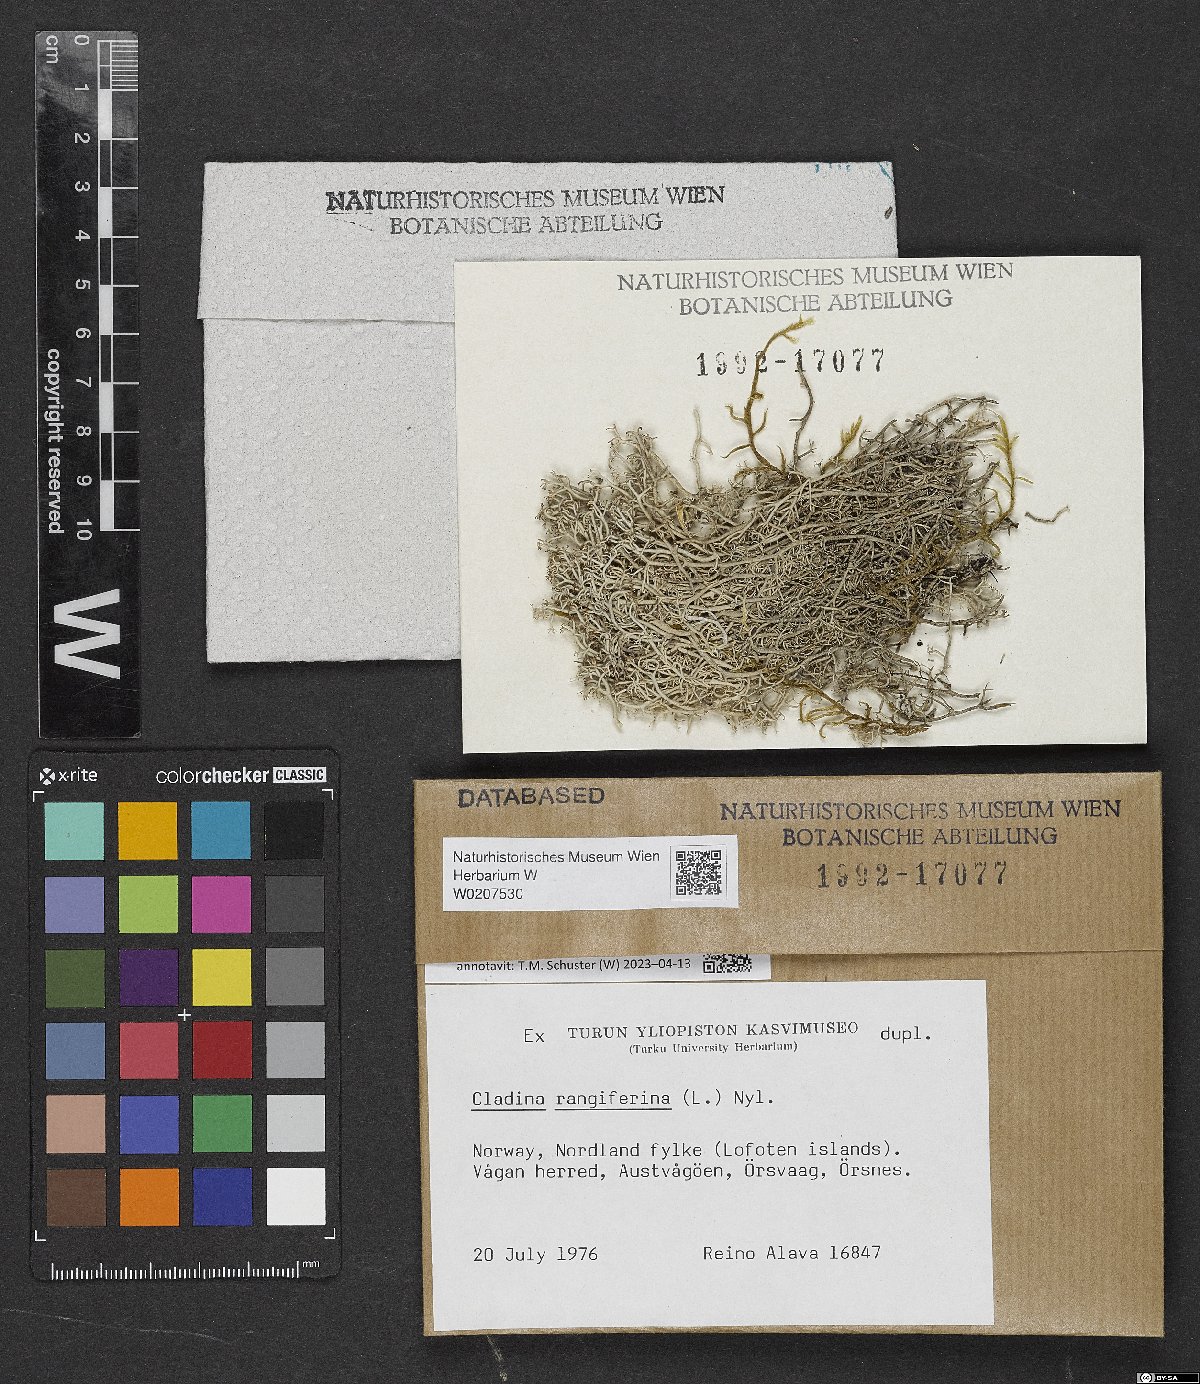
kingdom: Fungi
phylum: Ascomycota
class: Lecanoromycetes
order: Lecanorales
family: Cladoniaceae
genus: Cladonia
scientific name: Cladonia rangiferina
